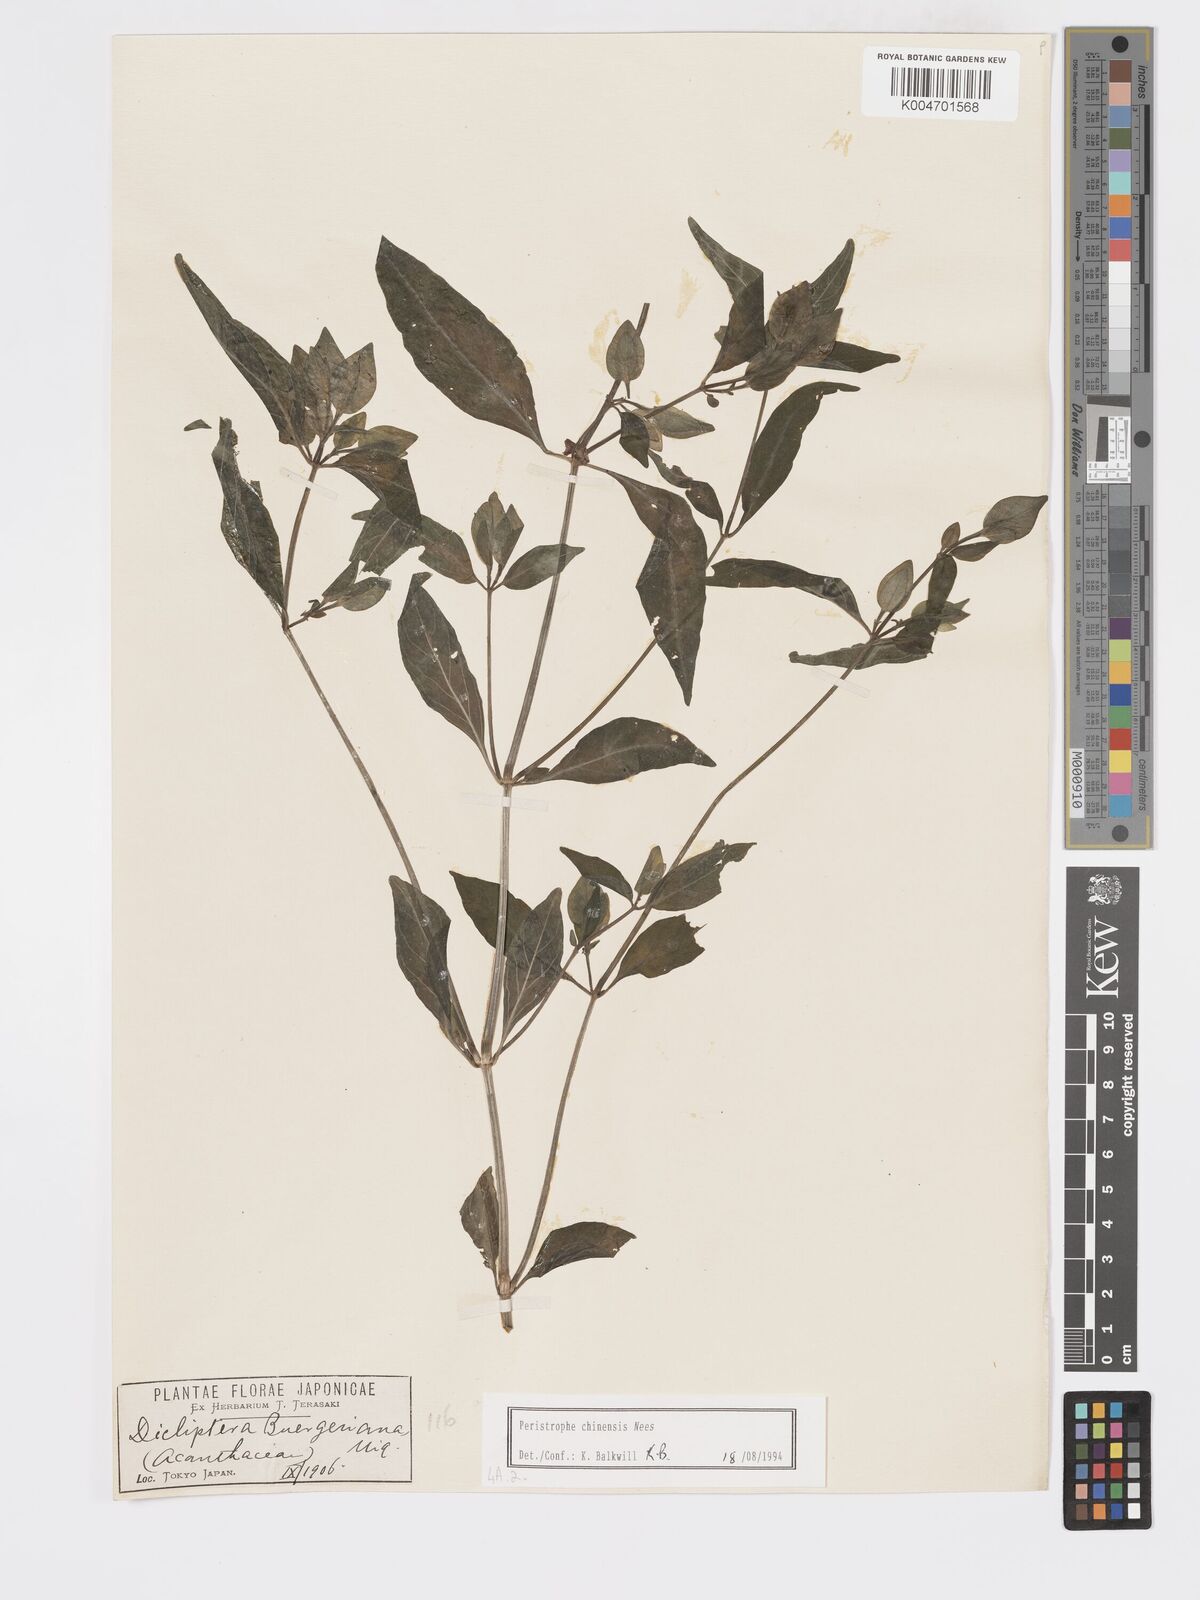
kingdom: Plantae
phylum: Tracheophyta
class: Magnoliopsida
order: Lamiales
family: Acanthaceae
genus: Dicliptera
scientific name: Dicliptera chinensis
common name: Chinese foldwing
